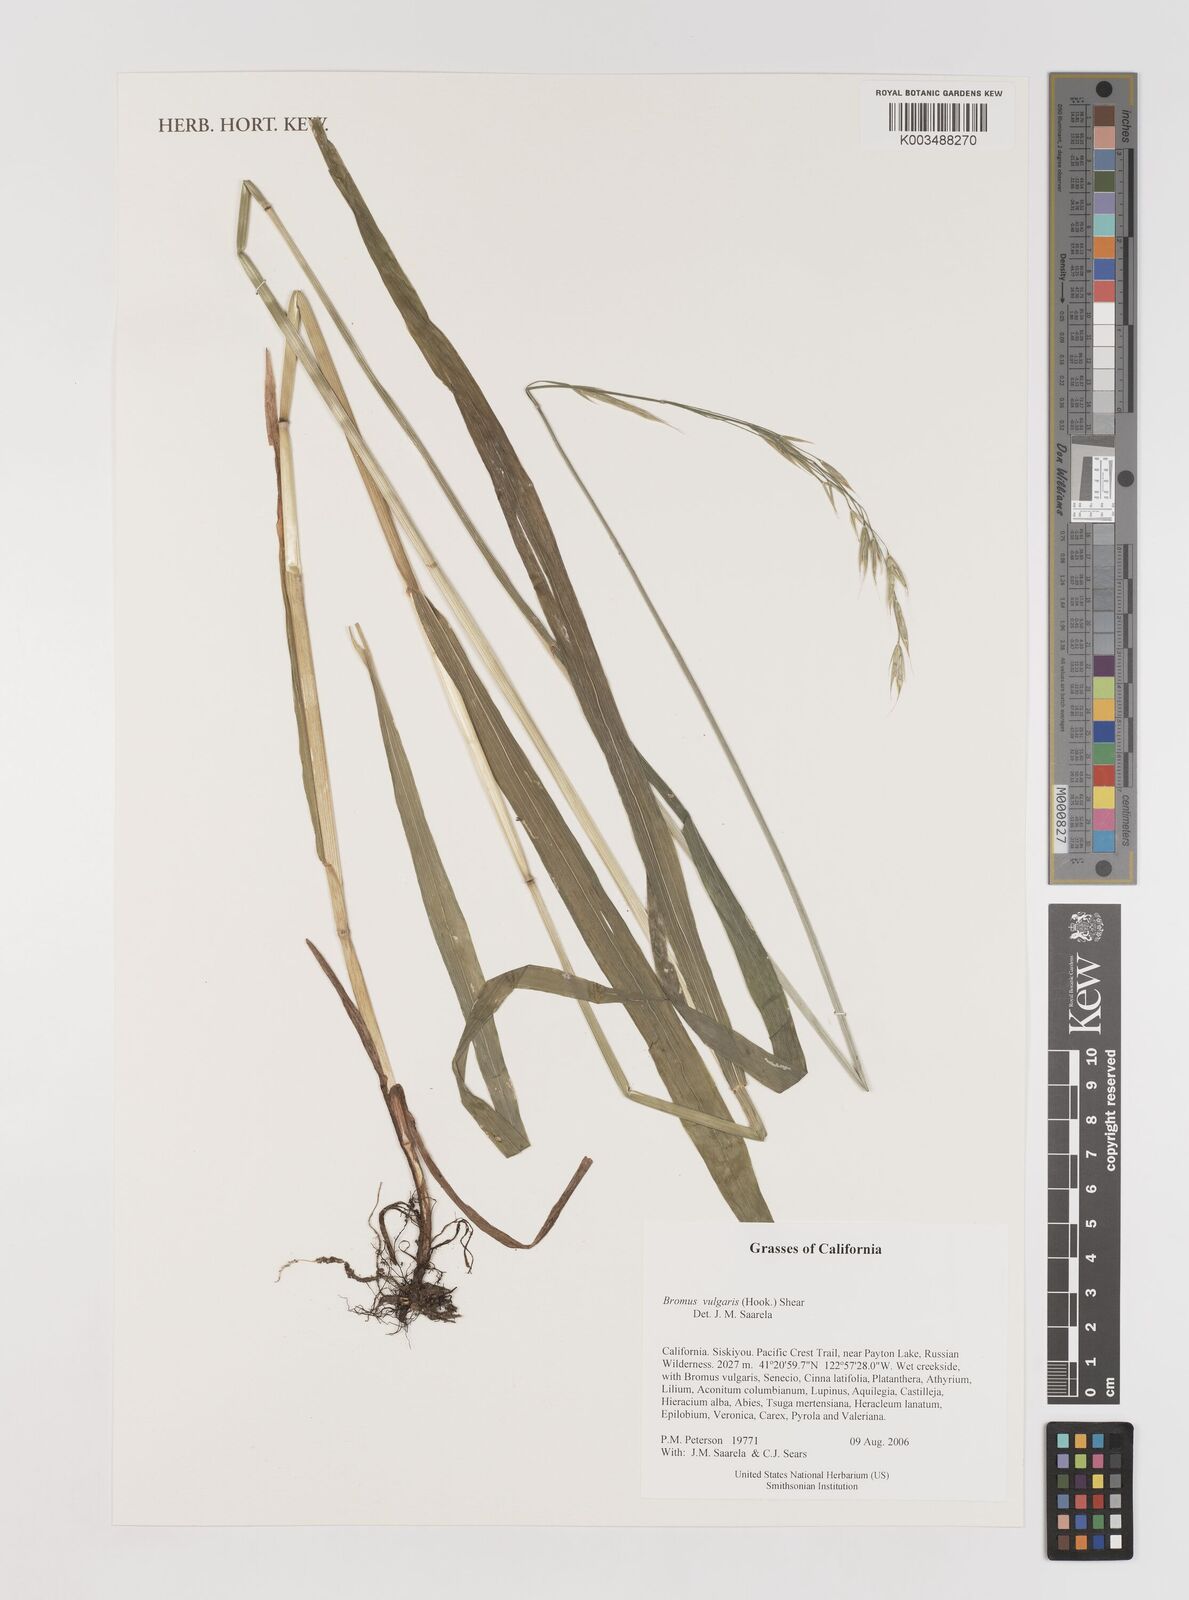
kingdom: Plantae
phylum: Tracheophyta
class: Liliopsida
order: Poales
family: Poaceae
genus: Bromus
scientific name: Bromus vulgaris
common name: Columbia brome
